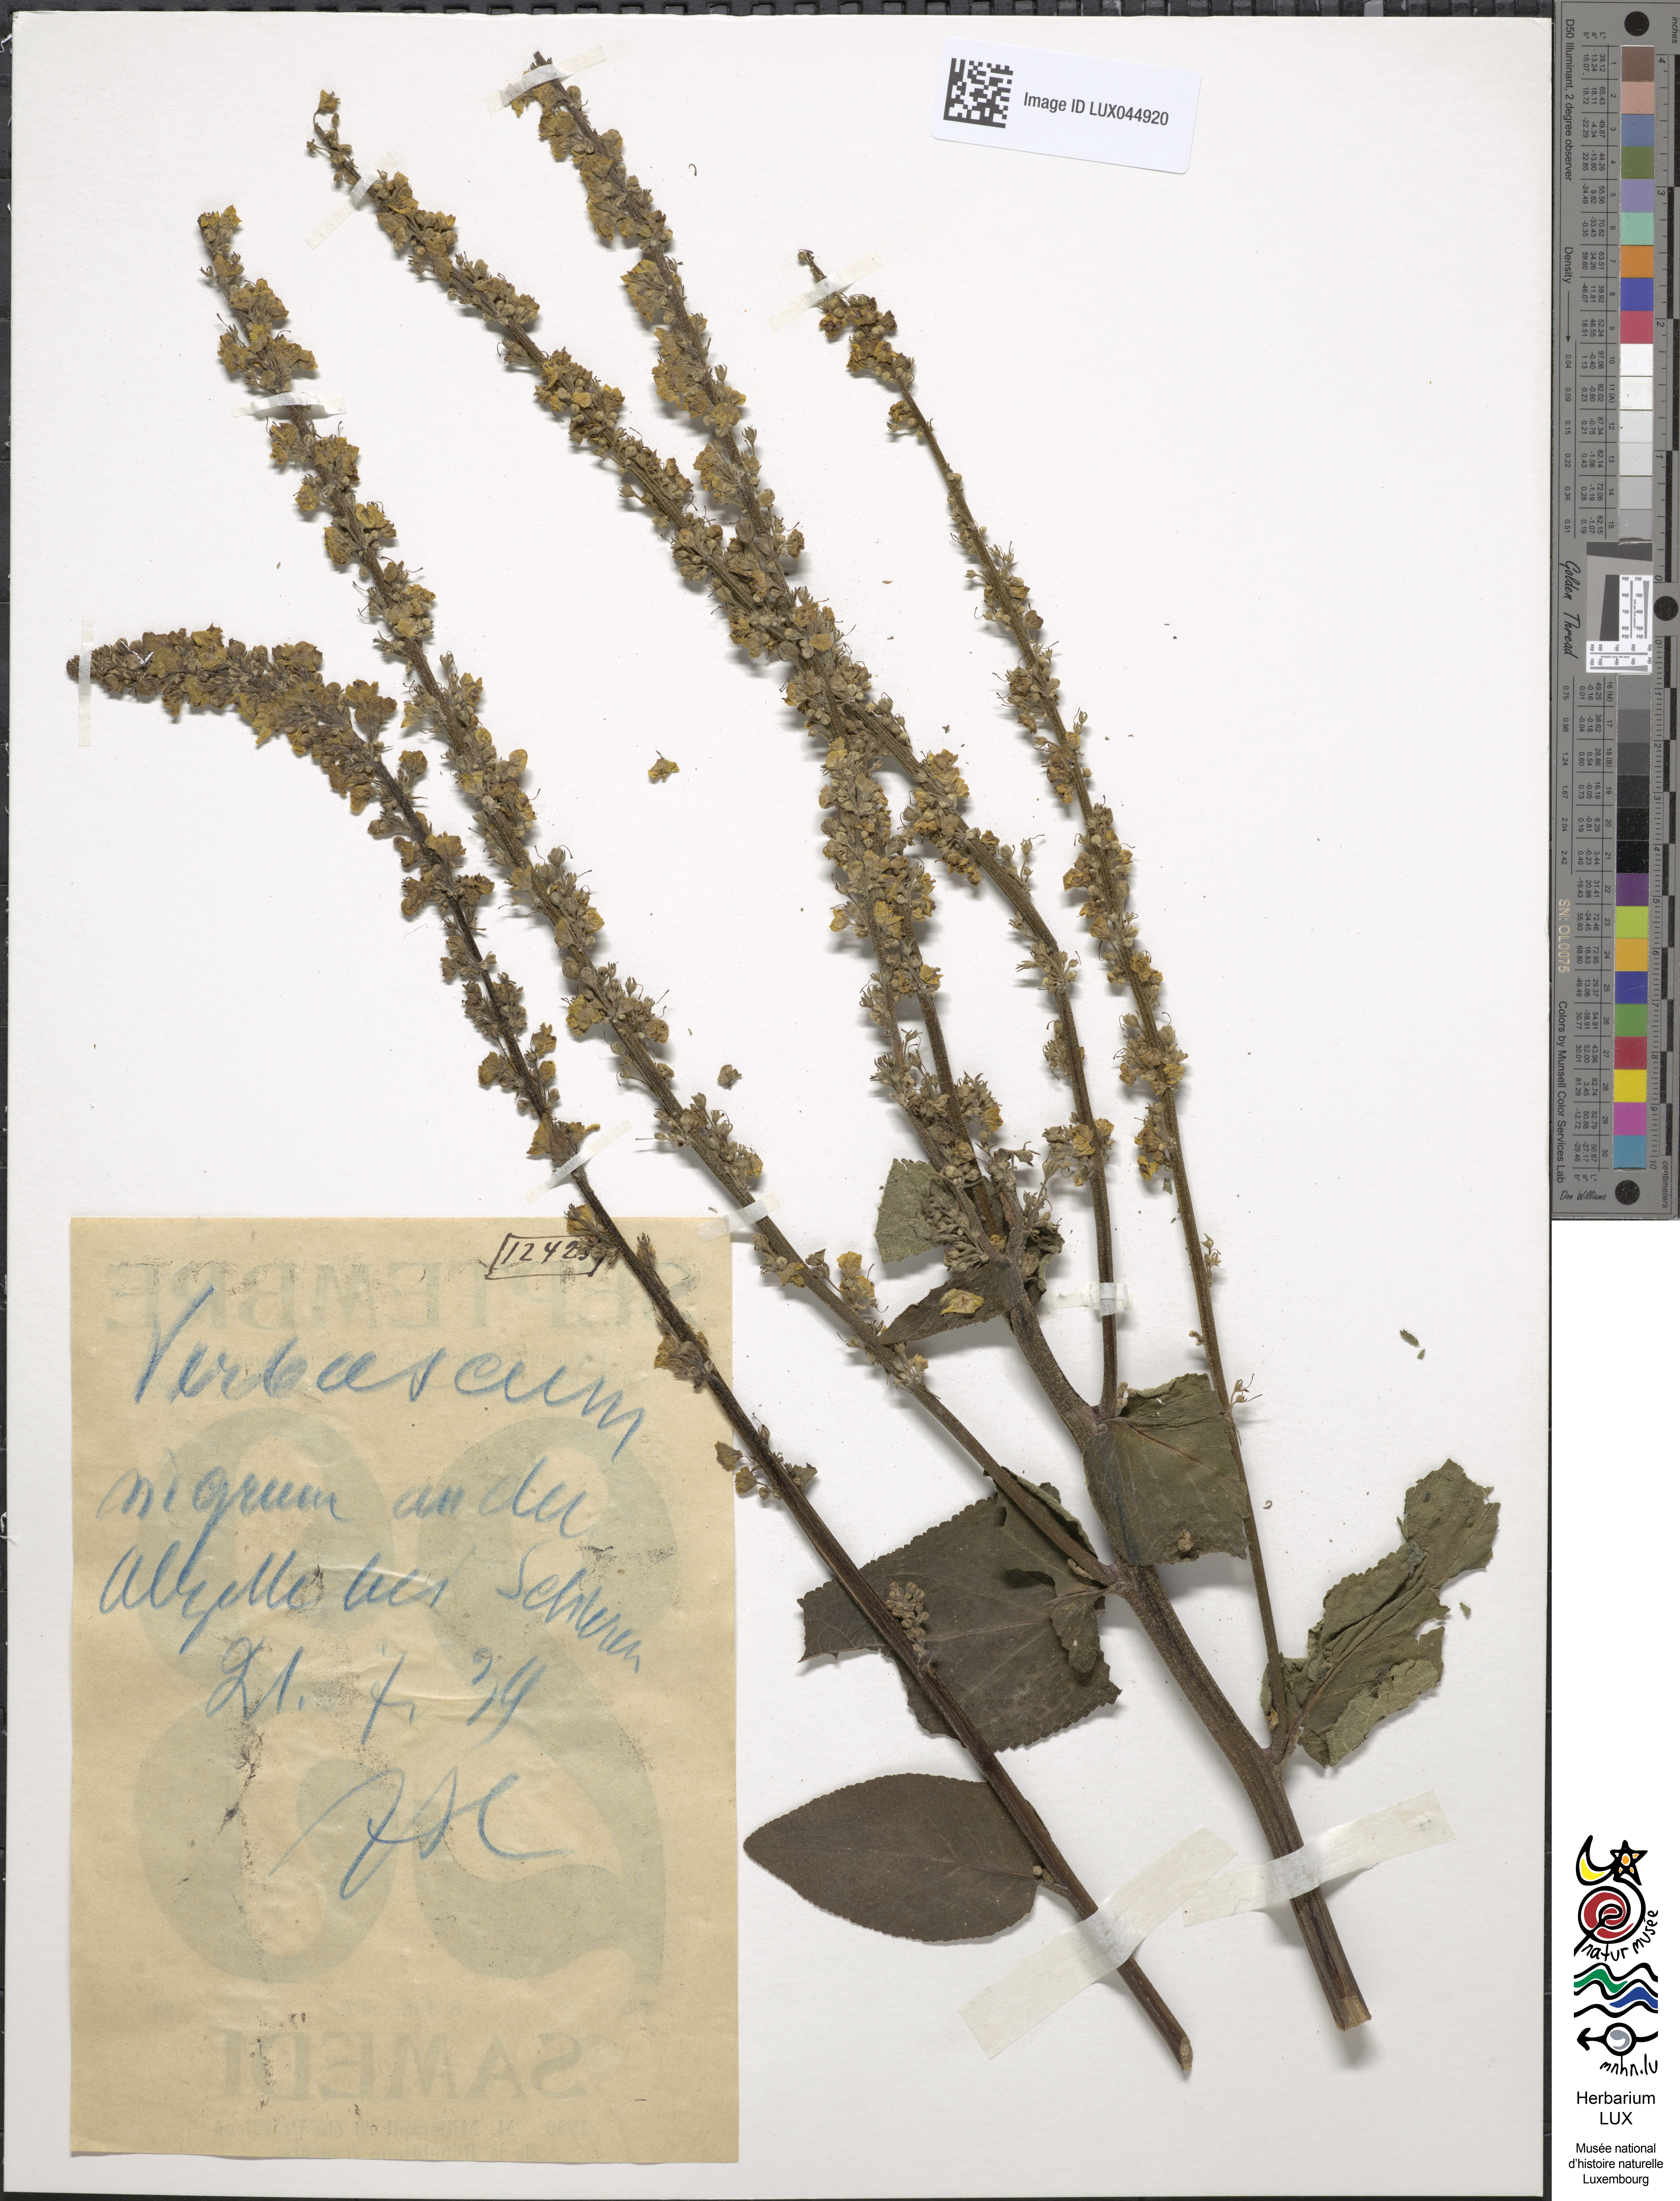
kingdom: Plantae
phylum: Tracheophyta
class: Magnoliopsida
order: Lamiales
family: Scrophulariaceae
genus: Verbascum
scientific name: Verbascum nigrum
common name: Dark mullein
